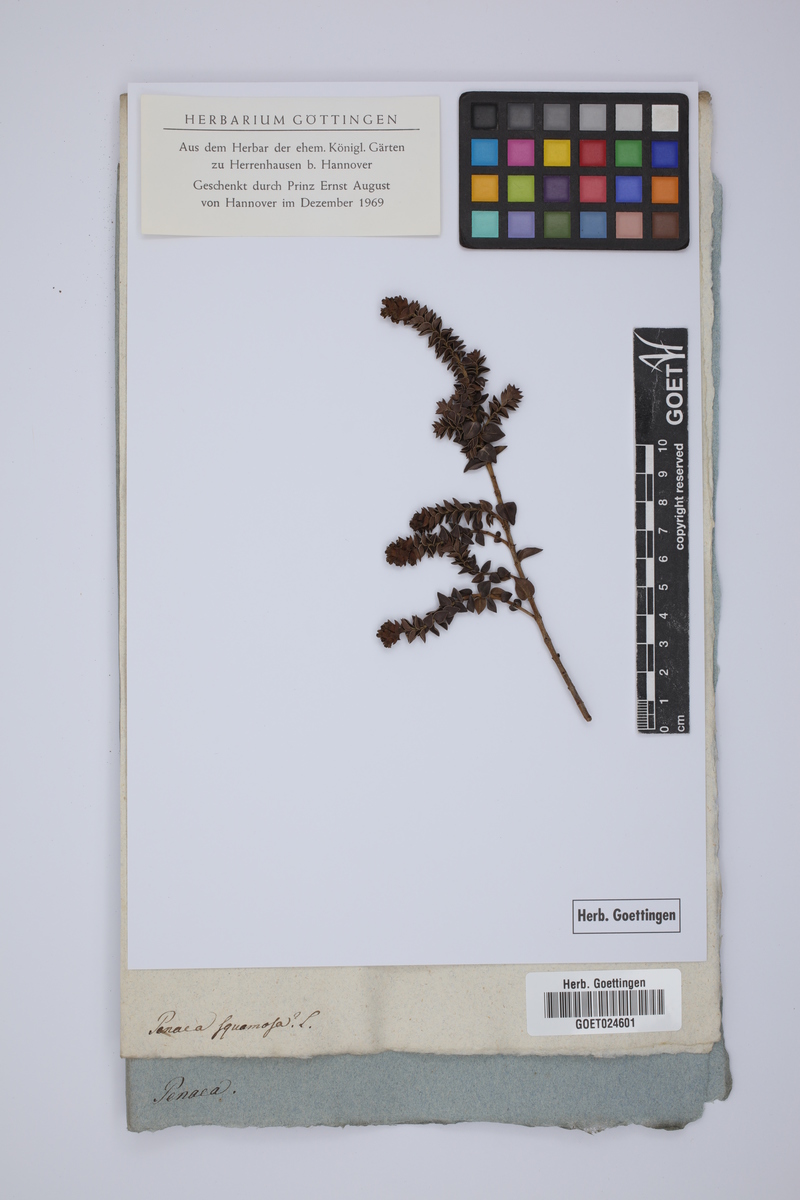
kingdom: Plantae
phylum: Tracheophyta
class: Magnoliopsida
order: Myrtales
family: Penaeaceae
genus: Saltera
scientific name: Saltera sarcocolla
